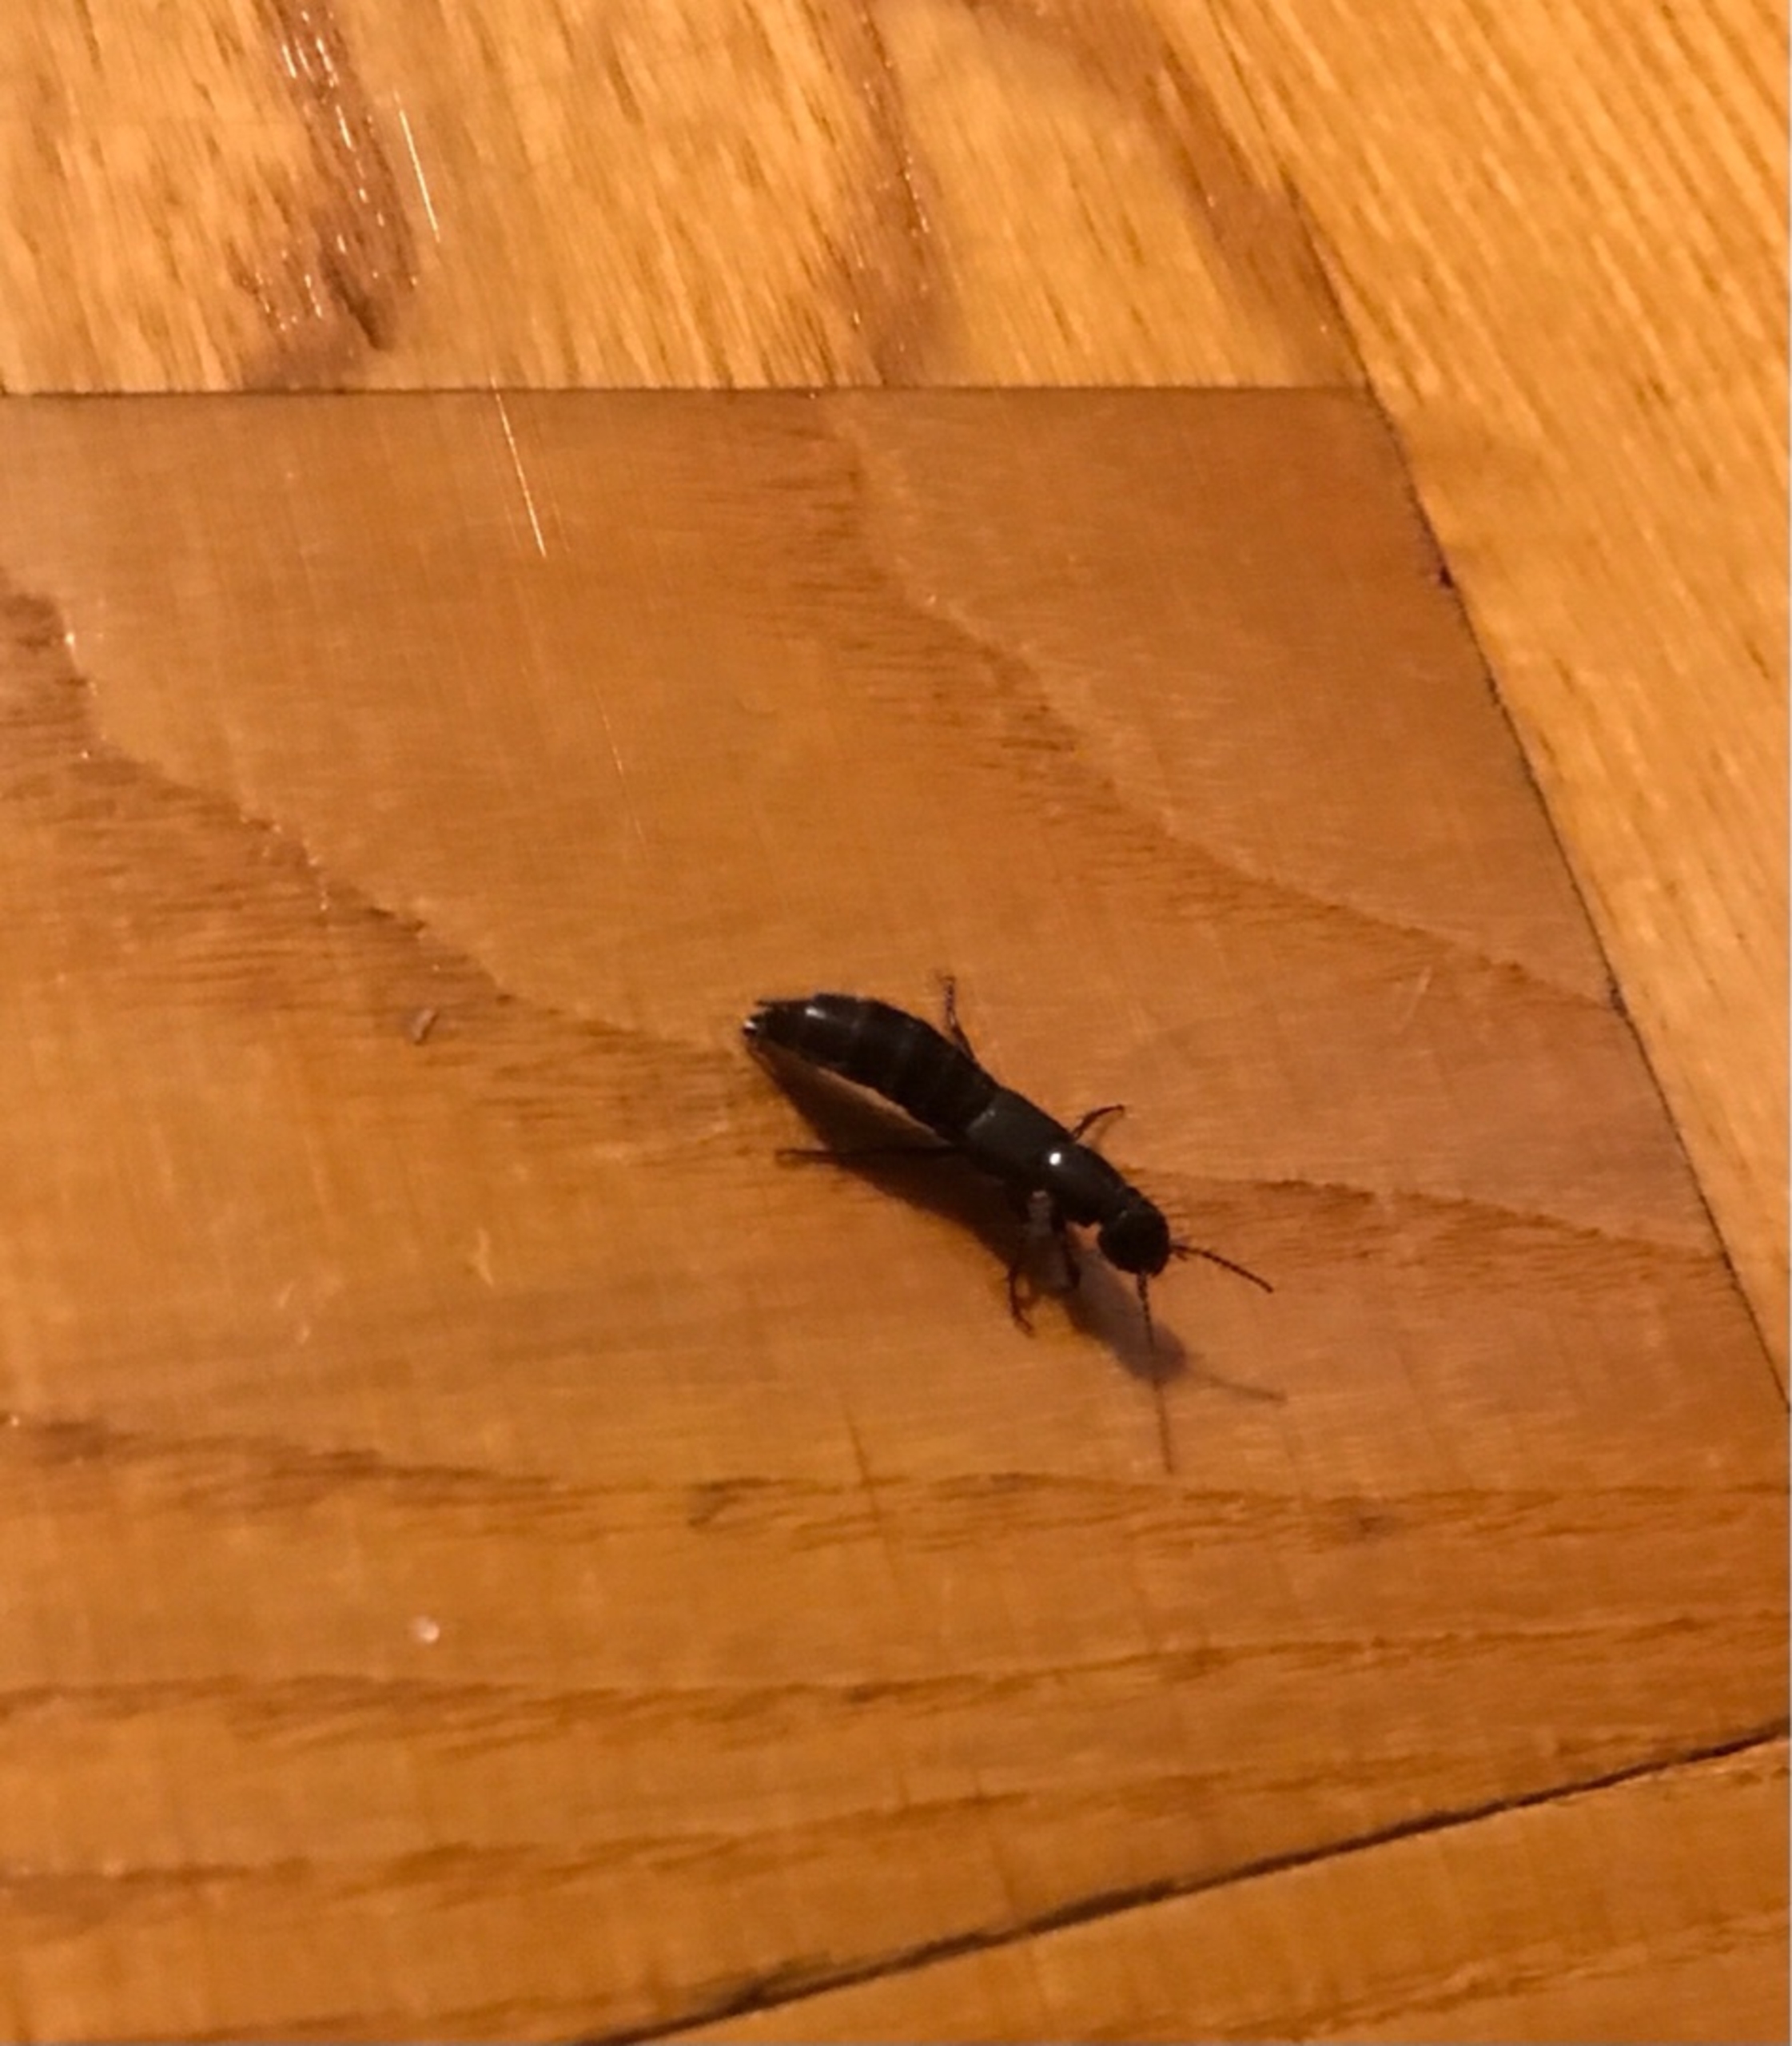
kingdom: Animalia
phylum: Arthropoda
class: Insecta
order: Coleoptera
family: Staphylinidae
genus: Tasgius
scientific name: Tasgius
